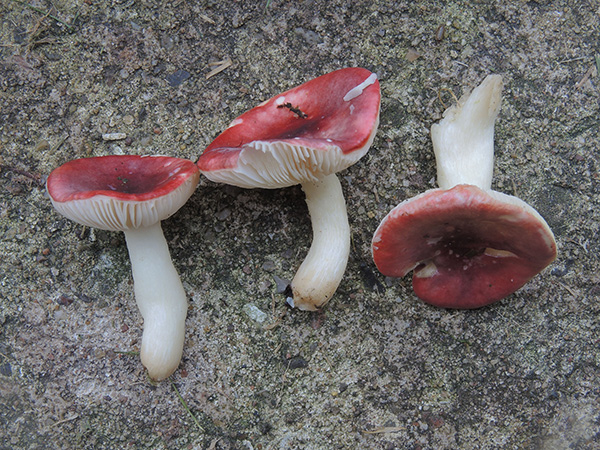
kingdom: Fungi
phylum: Basidiomycota
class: Agaricomycetes
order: Russulales
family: Russulaceae
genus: Russula
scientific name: Russula atrorubens
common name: sortrød skørhat
